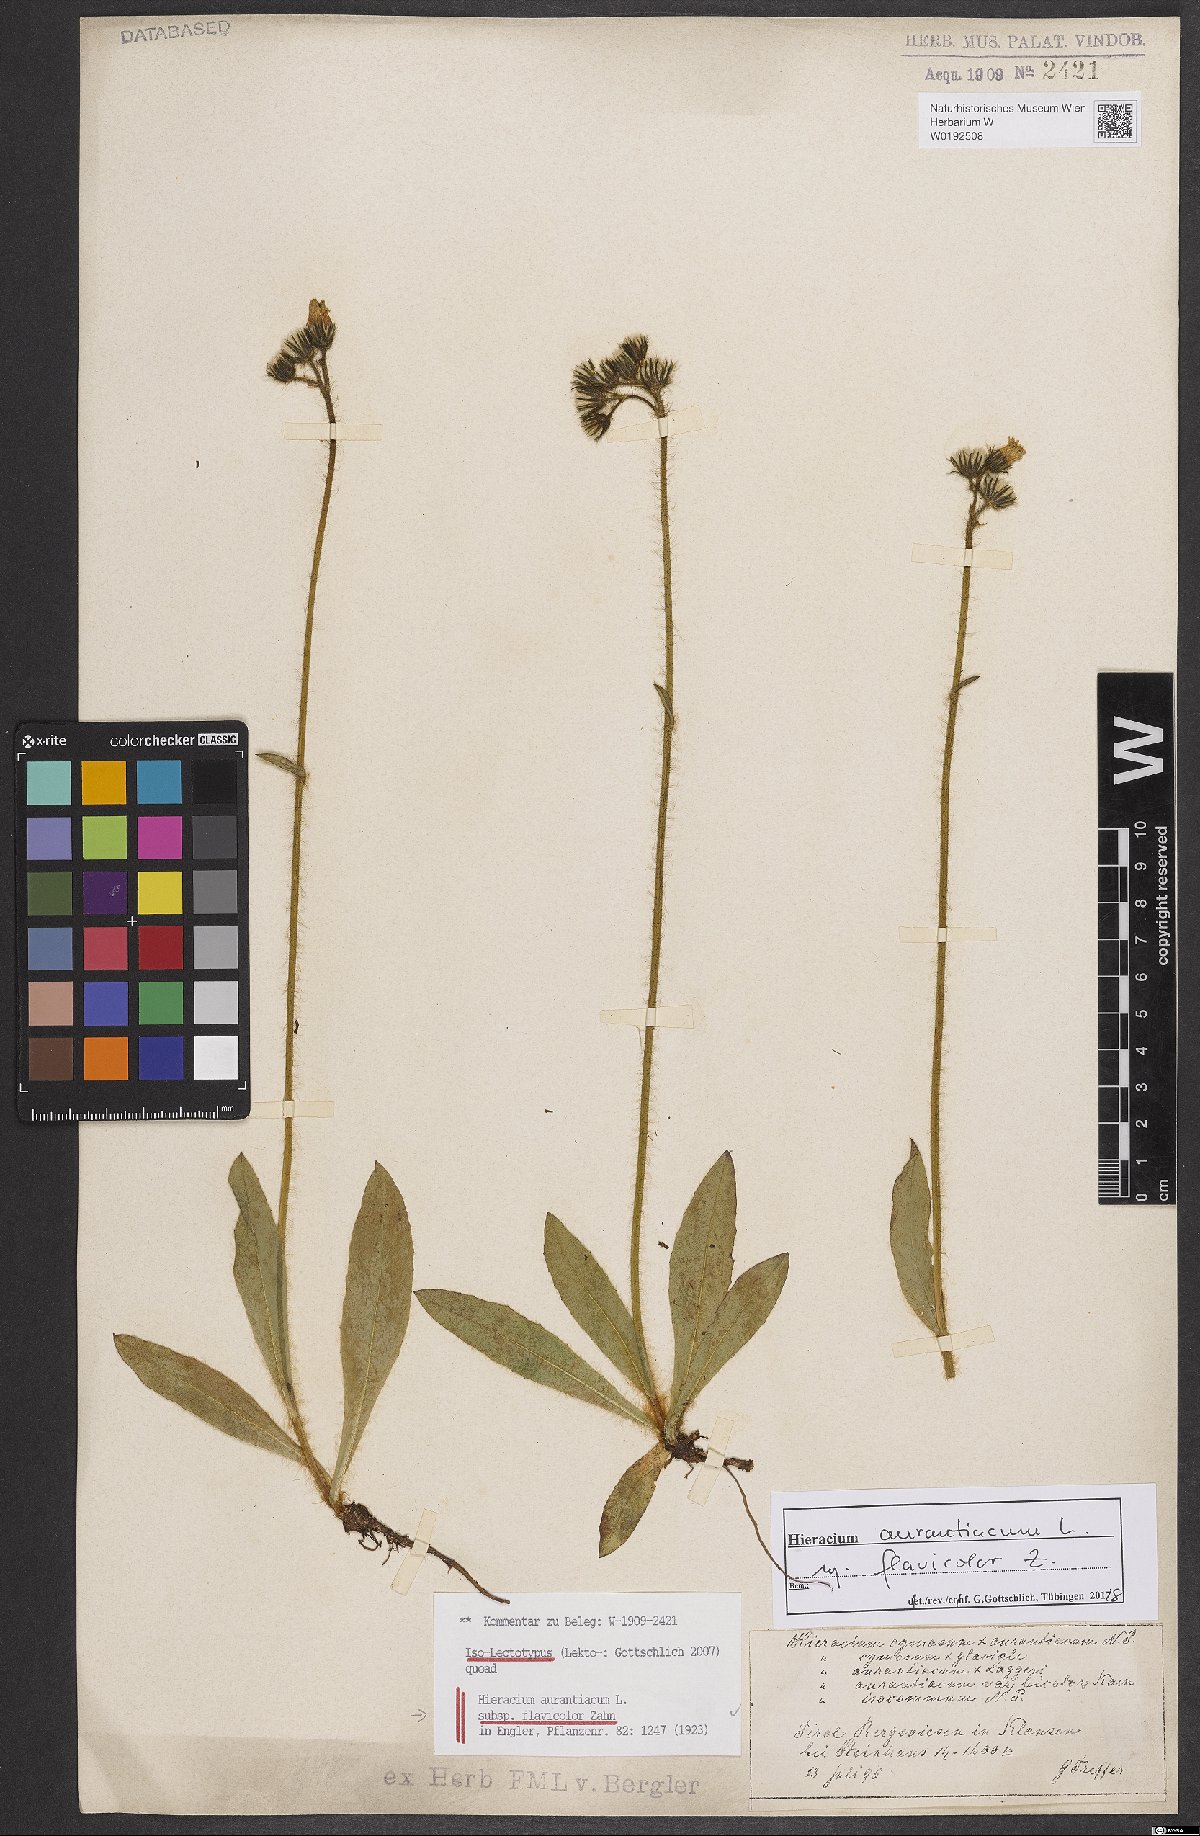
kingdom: Plantae
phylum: Tracheophyta
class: Magnoliopsida
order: Asterales
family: Asteraceae
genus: Pilosella
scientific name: Pilosella aurantiaca
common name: Fox-and-cubs
